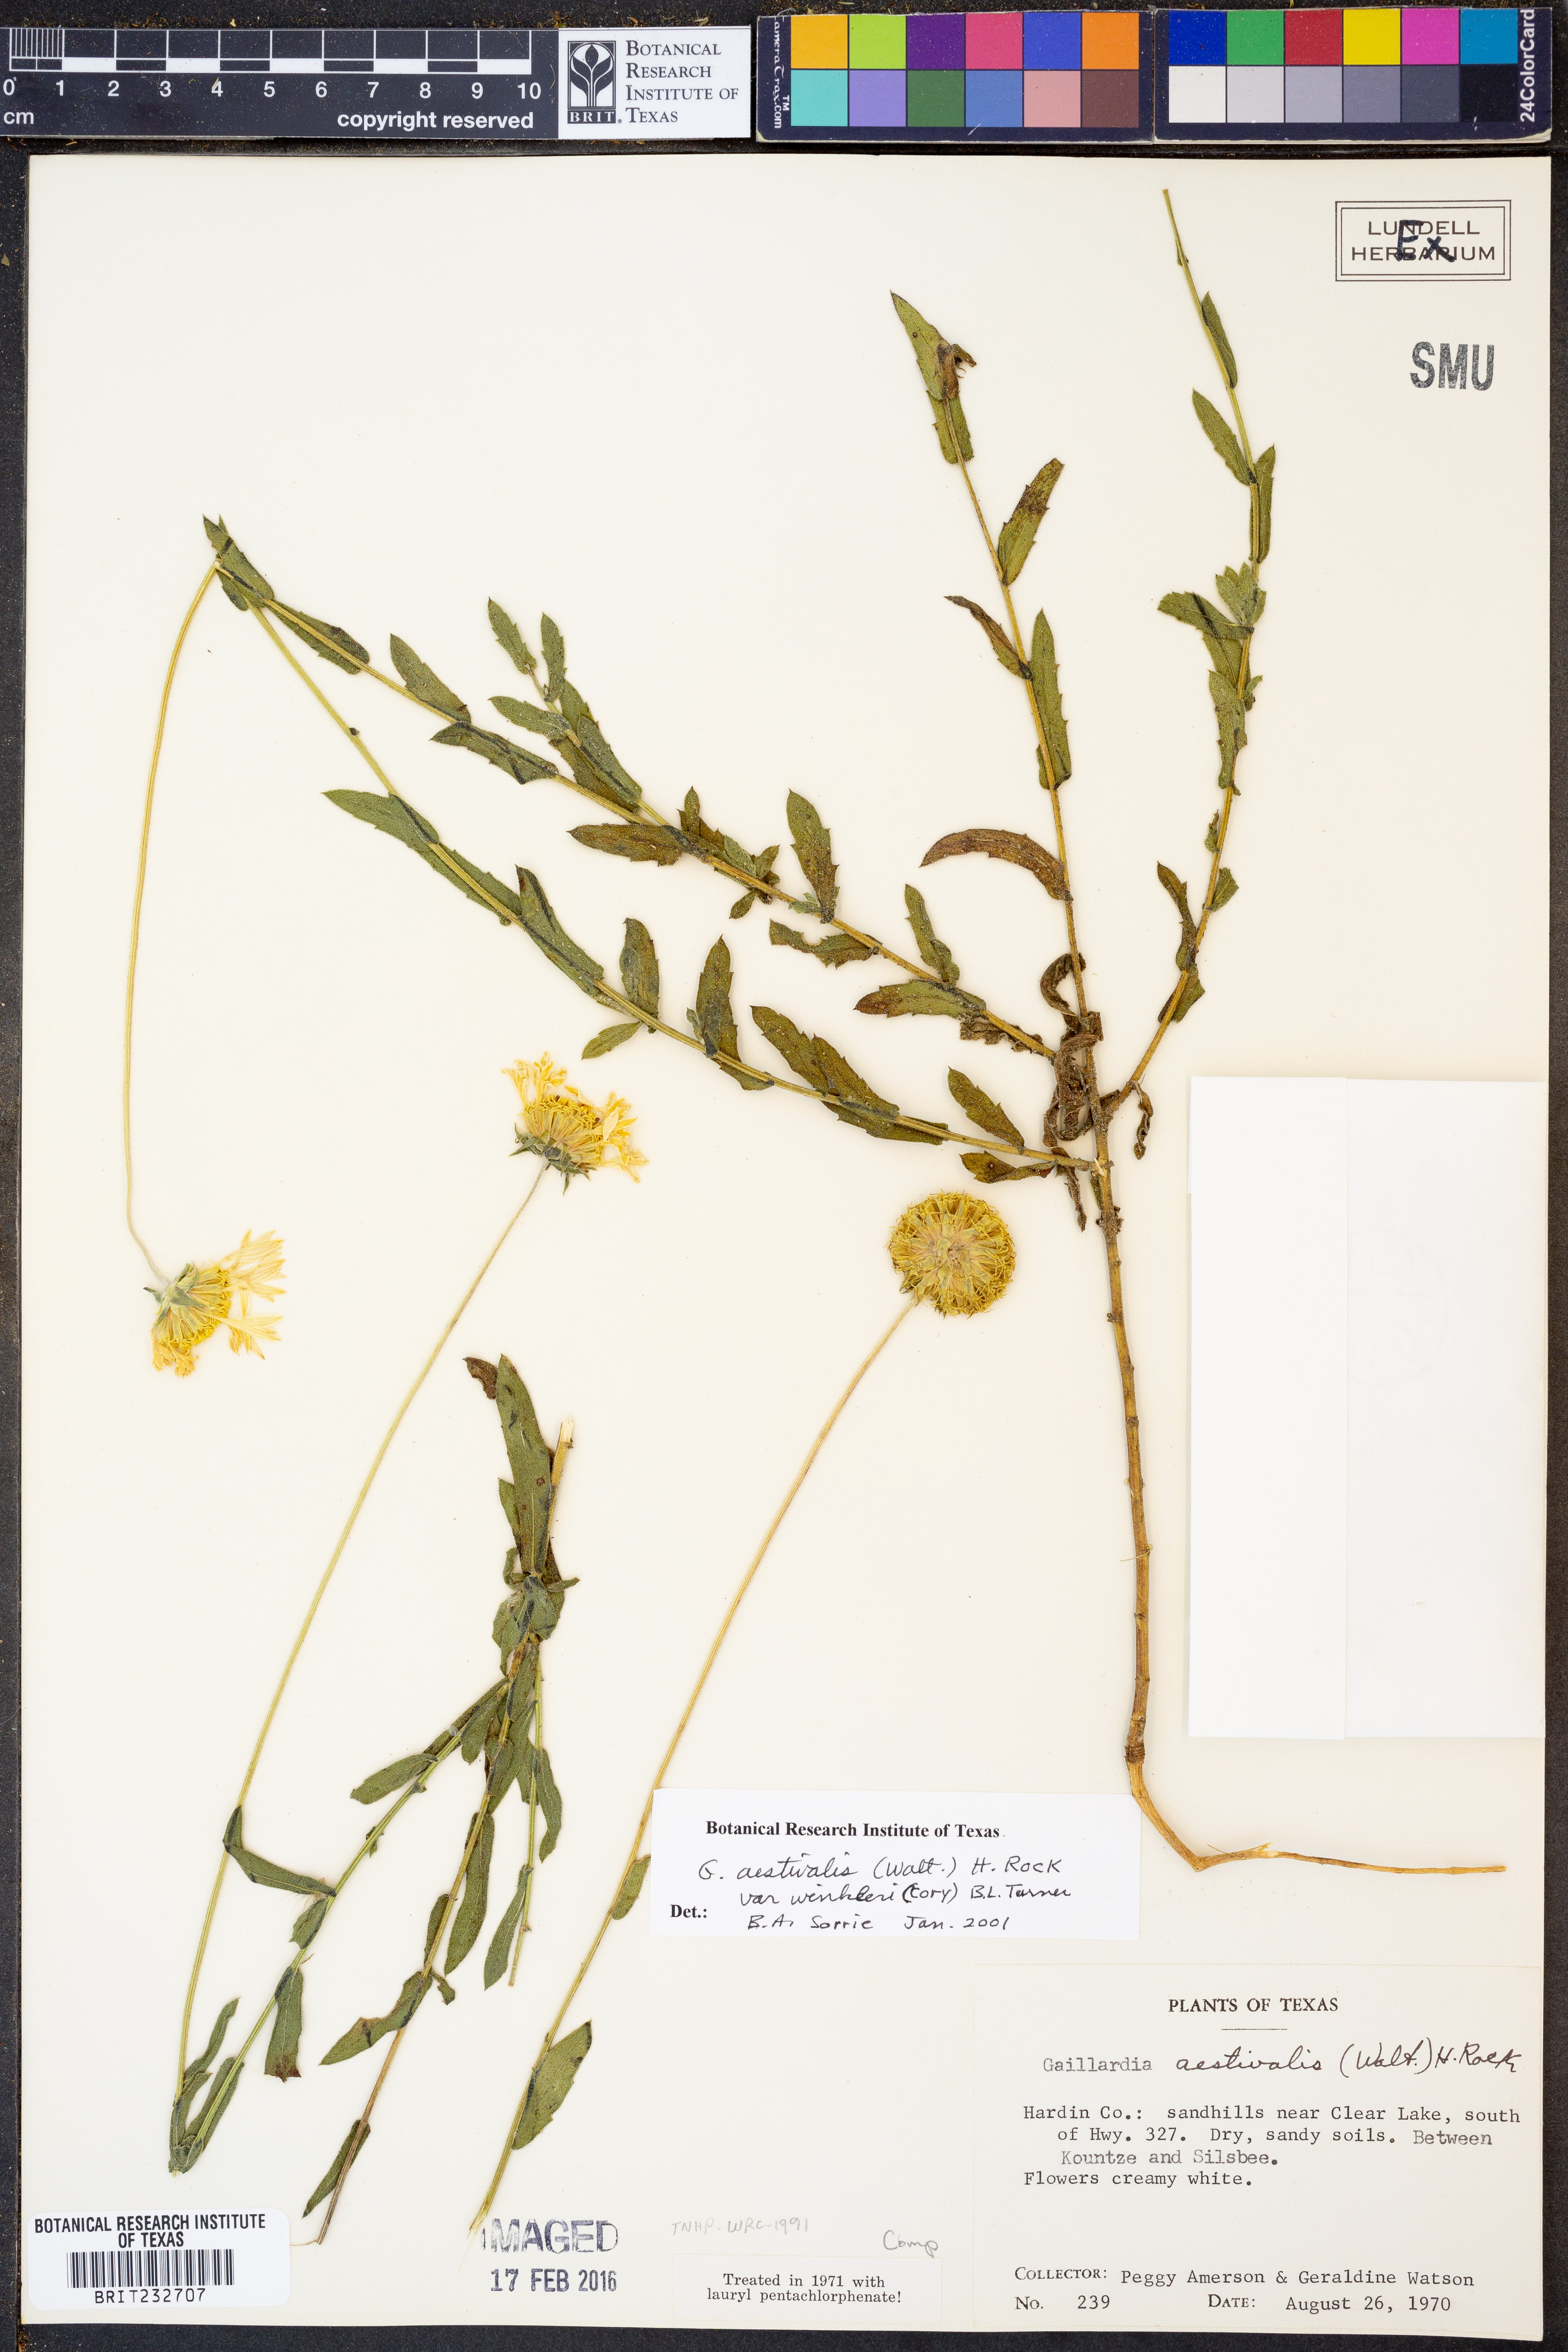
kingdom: Plantae
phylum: Tracheophyta
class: Magnoliopsida
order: Asterales
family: Asteraceae
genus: Gaillardia
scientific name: Gaillardia aestivalis
